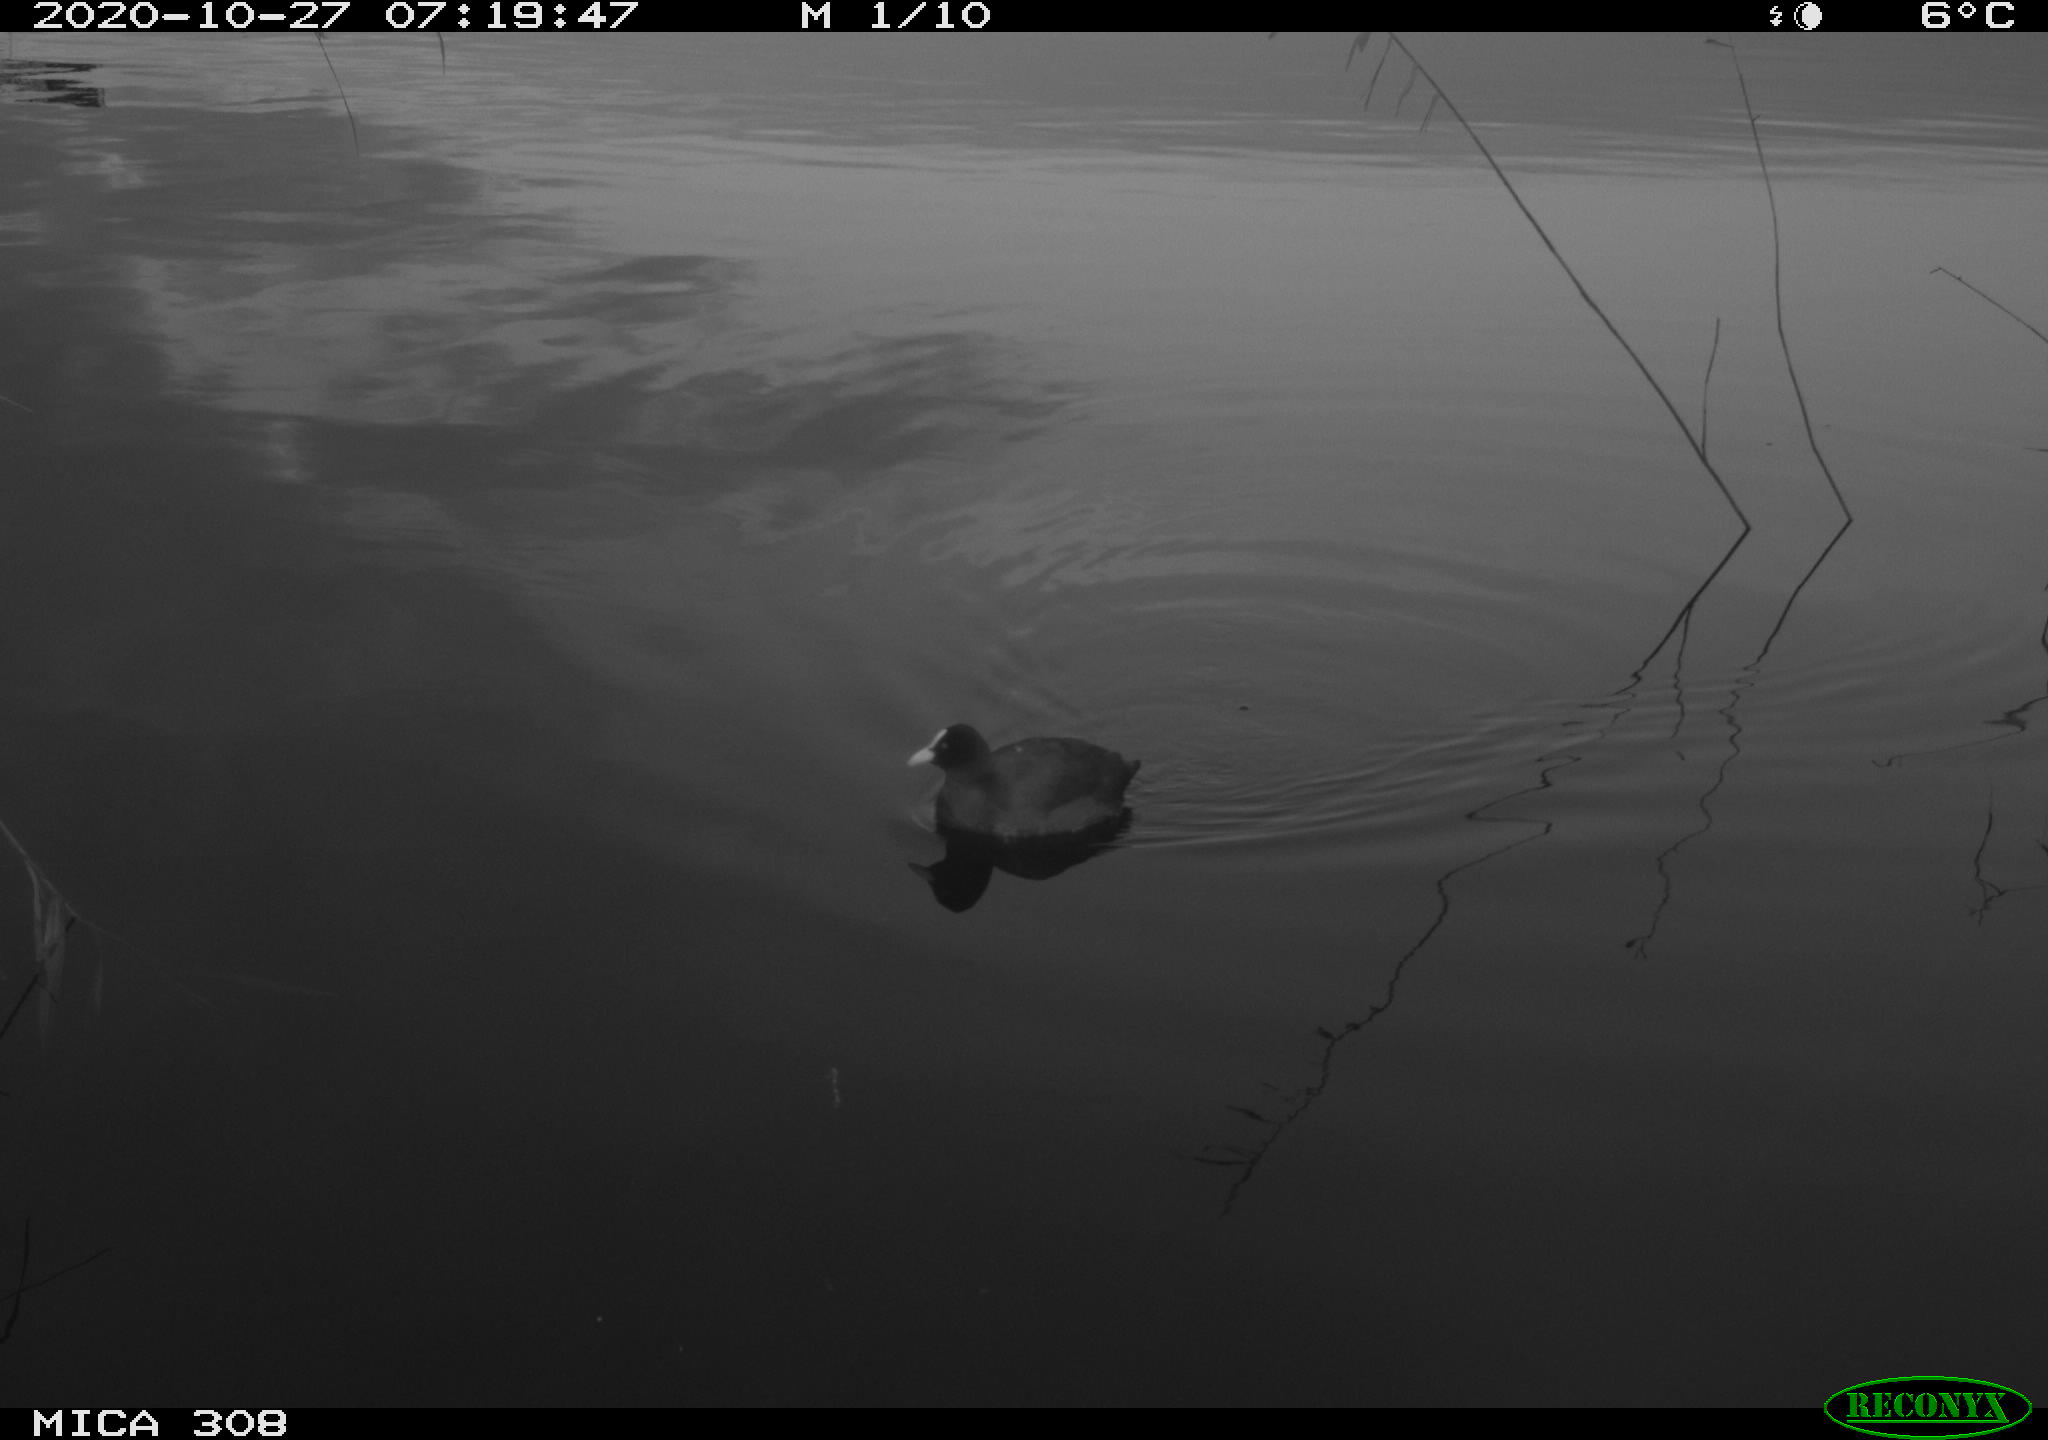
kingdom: Animalia
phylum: Chordata
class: Aves
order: Gruiformes
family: Rallidae
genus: Fulica
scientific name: Fulica atra
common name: Eurasian coot
